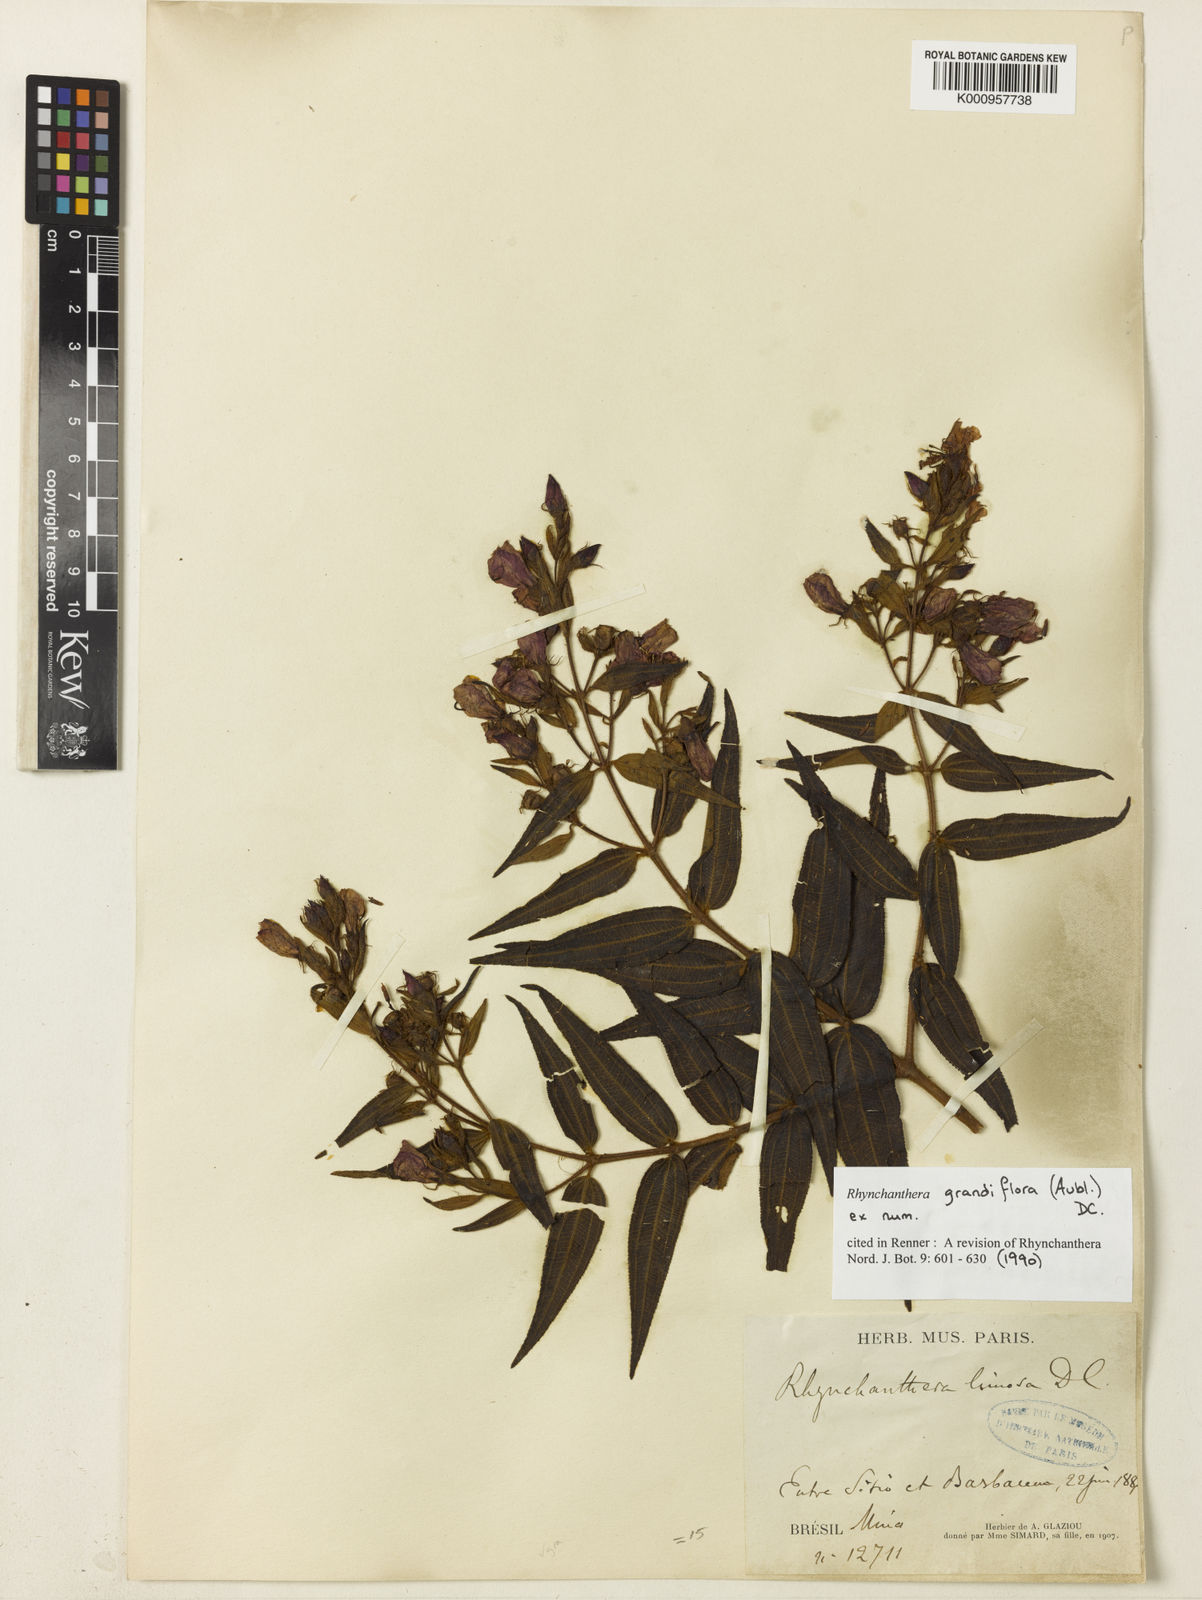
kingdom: Plantae
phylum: Tracheophyta
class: Magnoliopsida
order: Myrtales
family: Melastomataceae
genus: Rhynchanthera
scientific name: Rhynchanthera grandiflora
